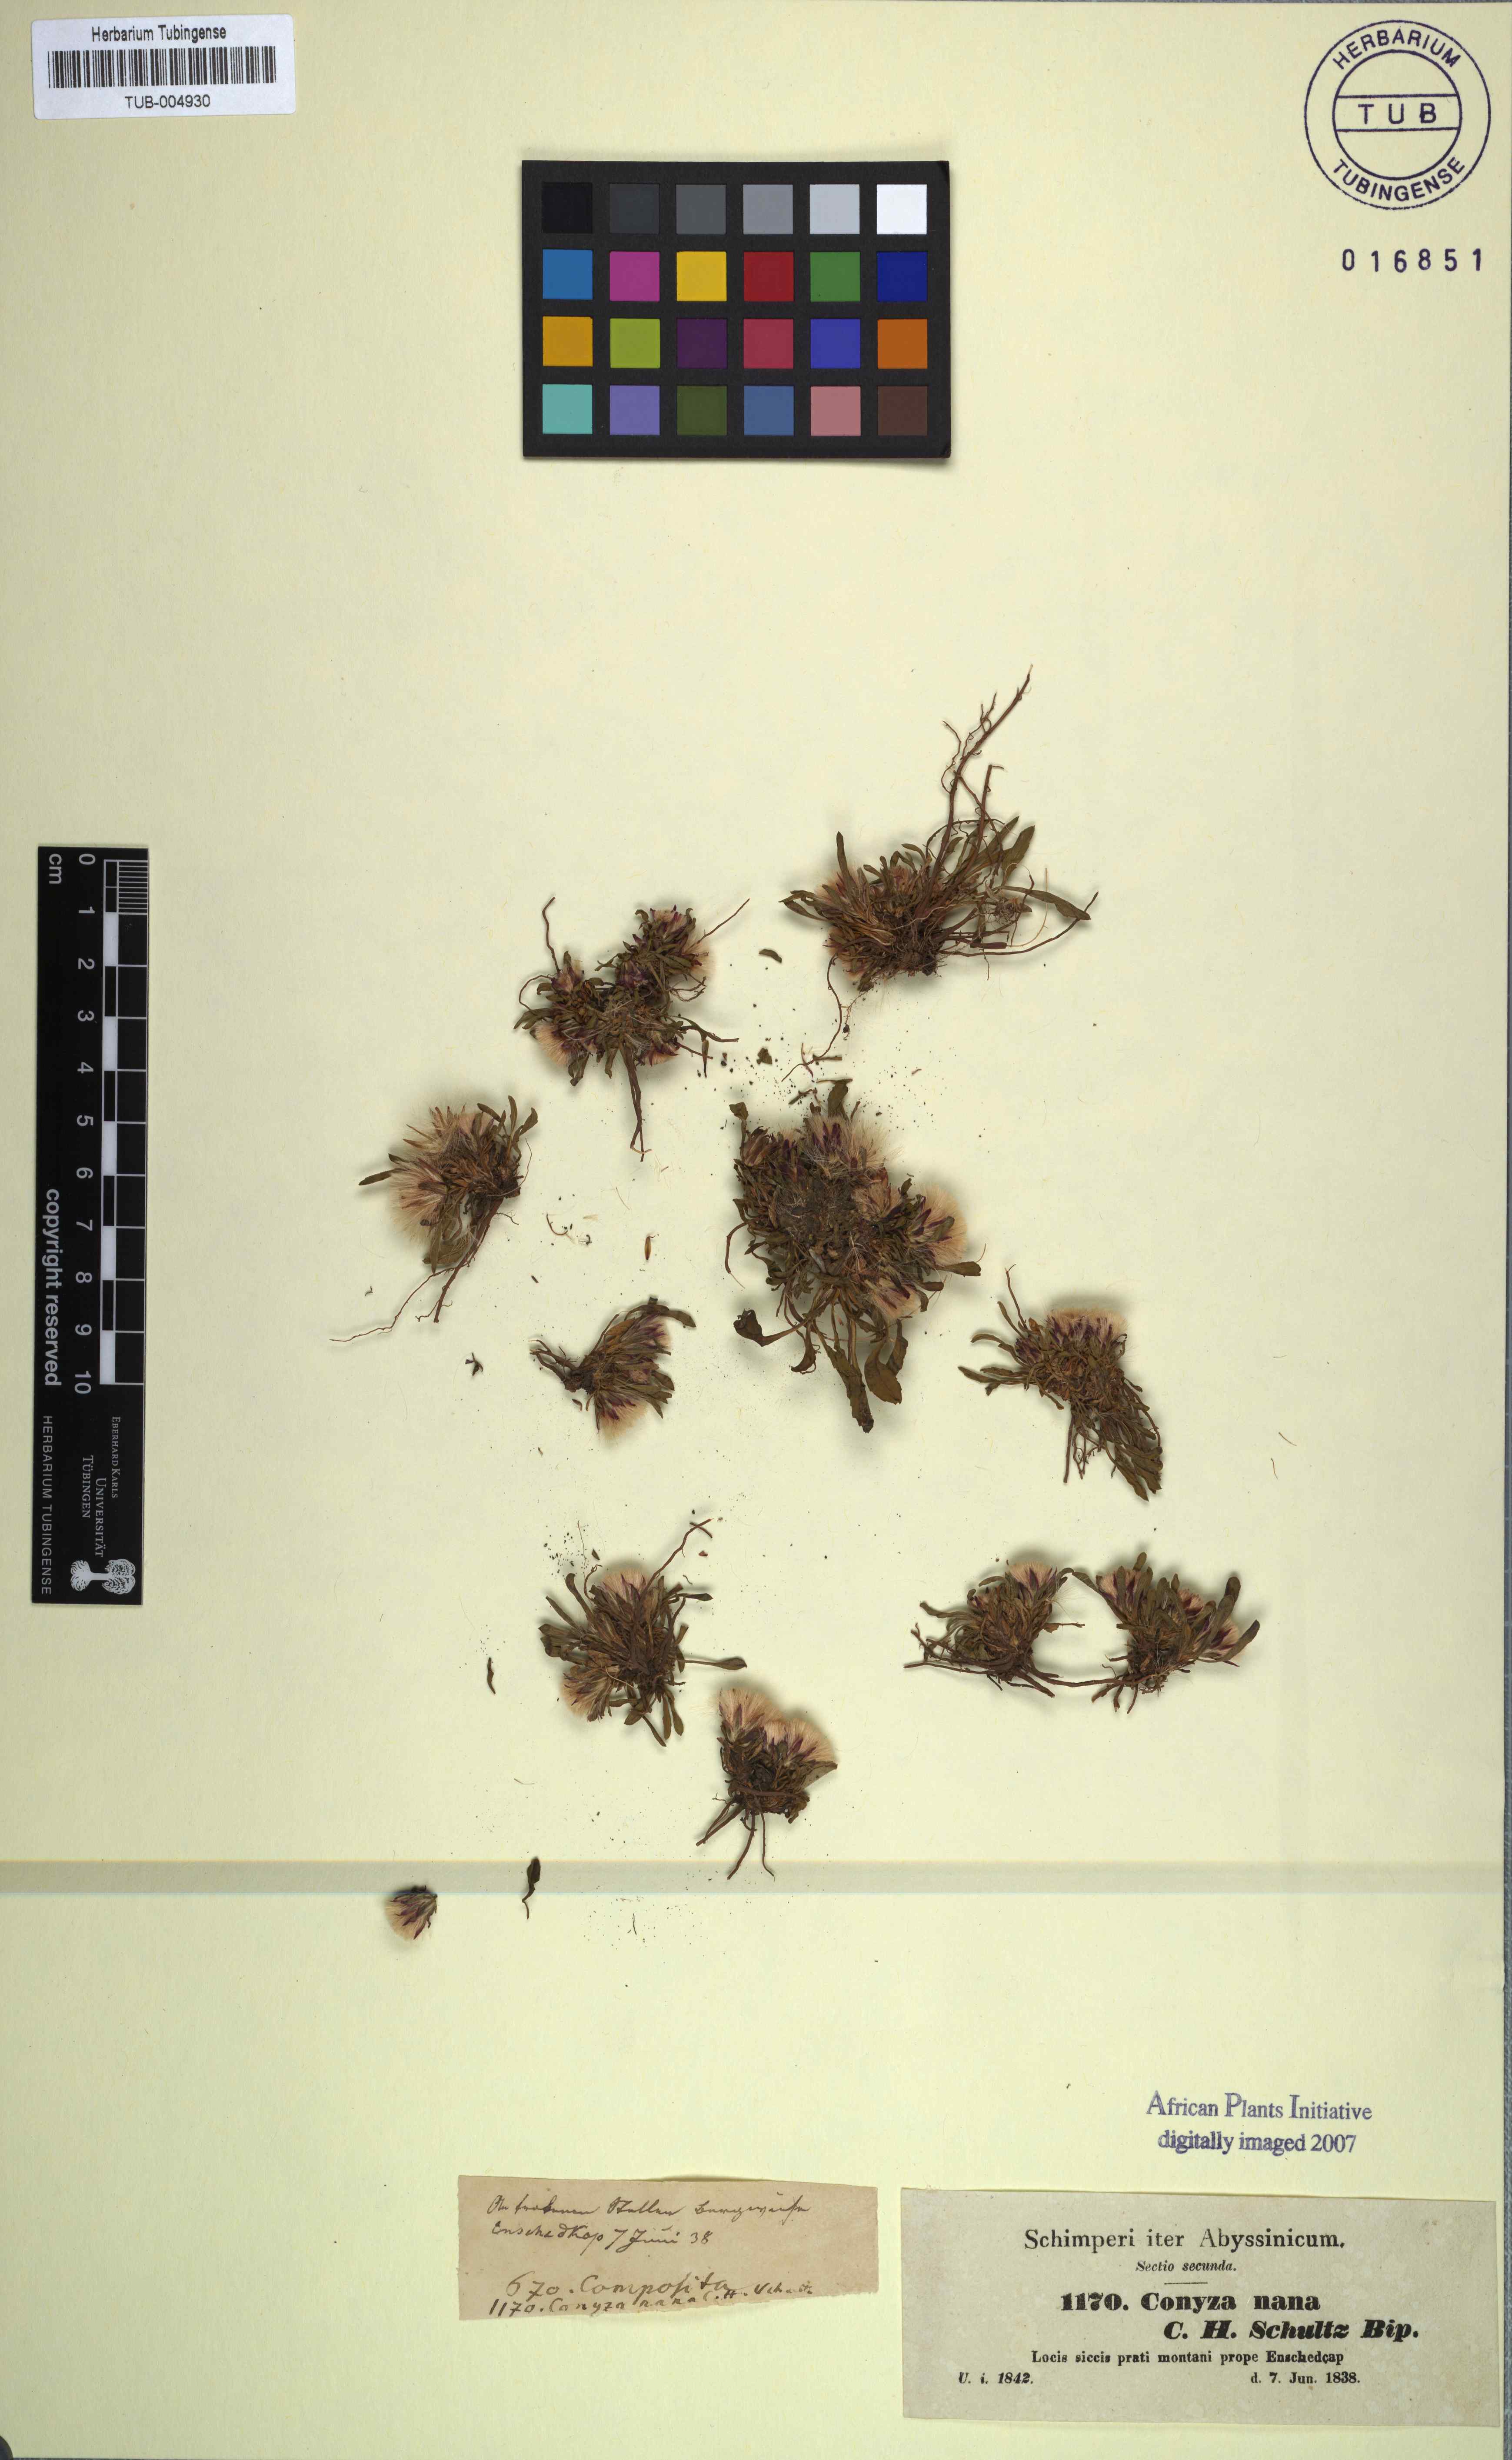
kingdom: Plantae
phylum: Tracheophyta
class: Magnoliopsida
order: Asterales
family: Asteraceae
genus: Conyza
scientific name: Conyza nana
